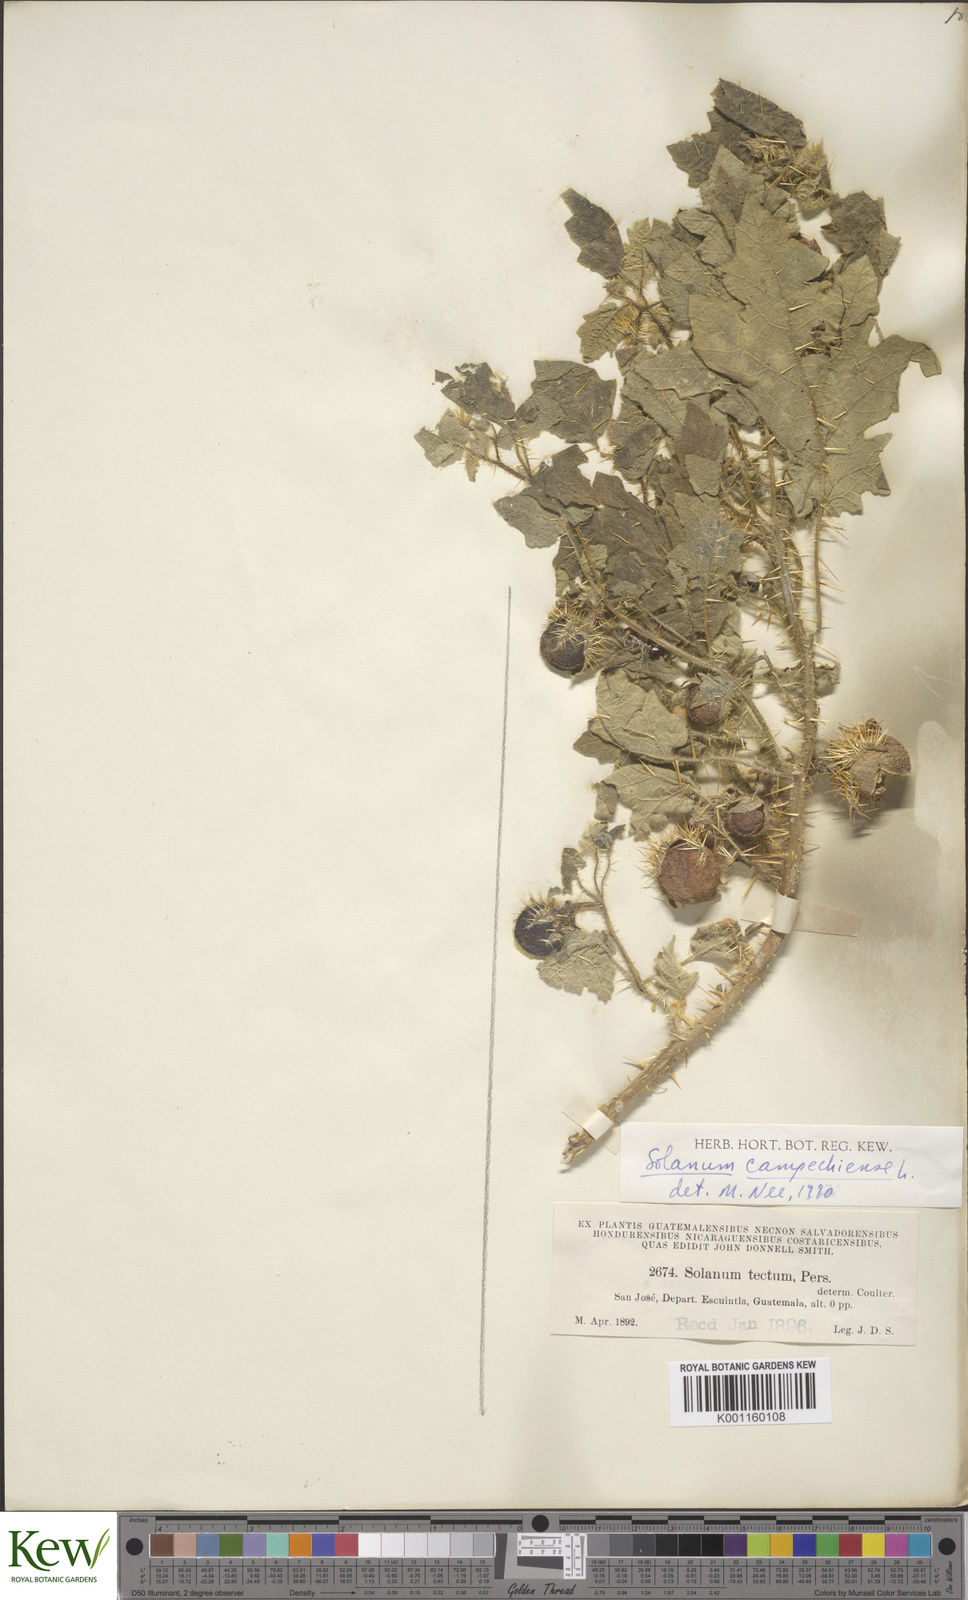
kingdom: Plantae
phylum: Tracheophyta
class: Magnoliopsida
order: Solanales
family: Solanaceae
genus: Solanum
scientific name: Solanum campechiense
